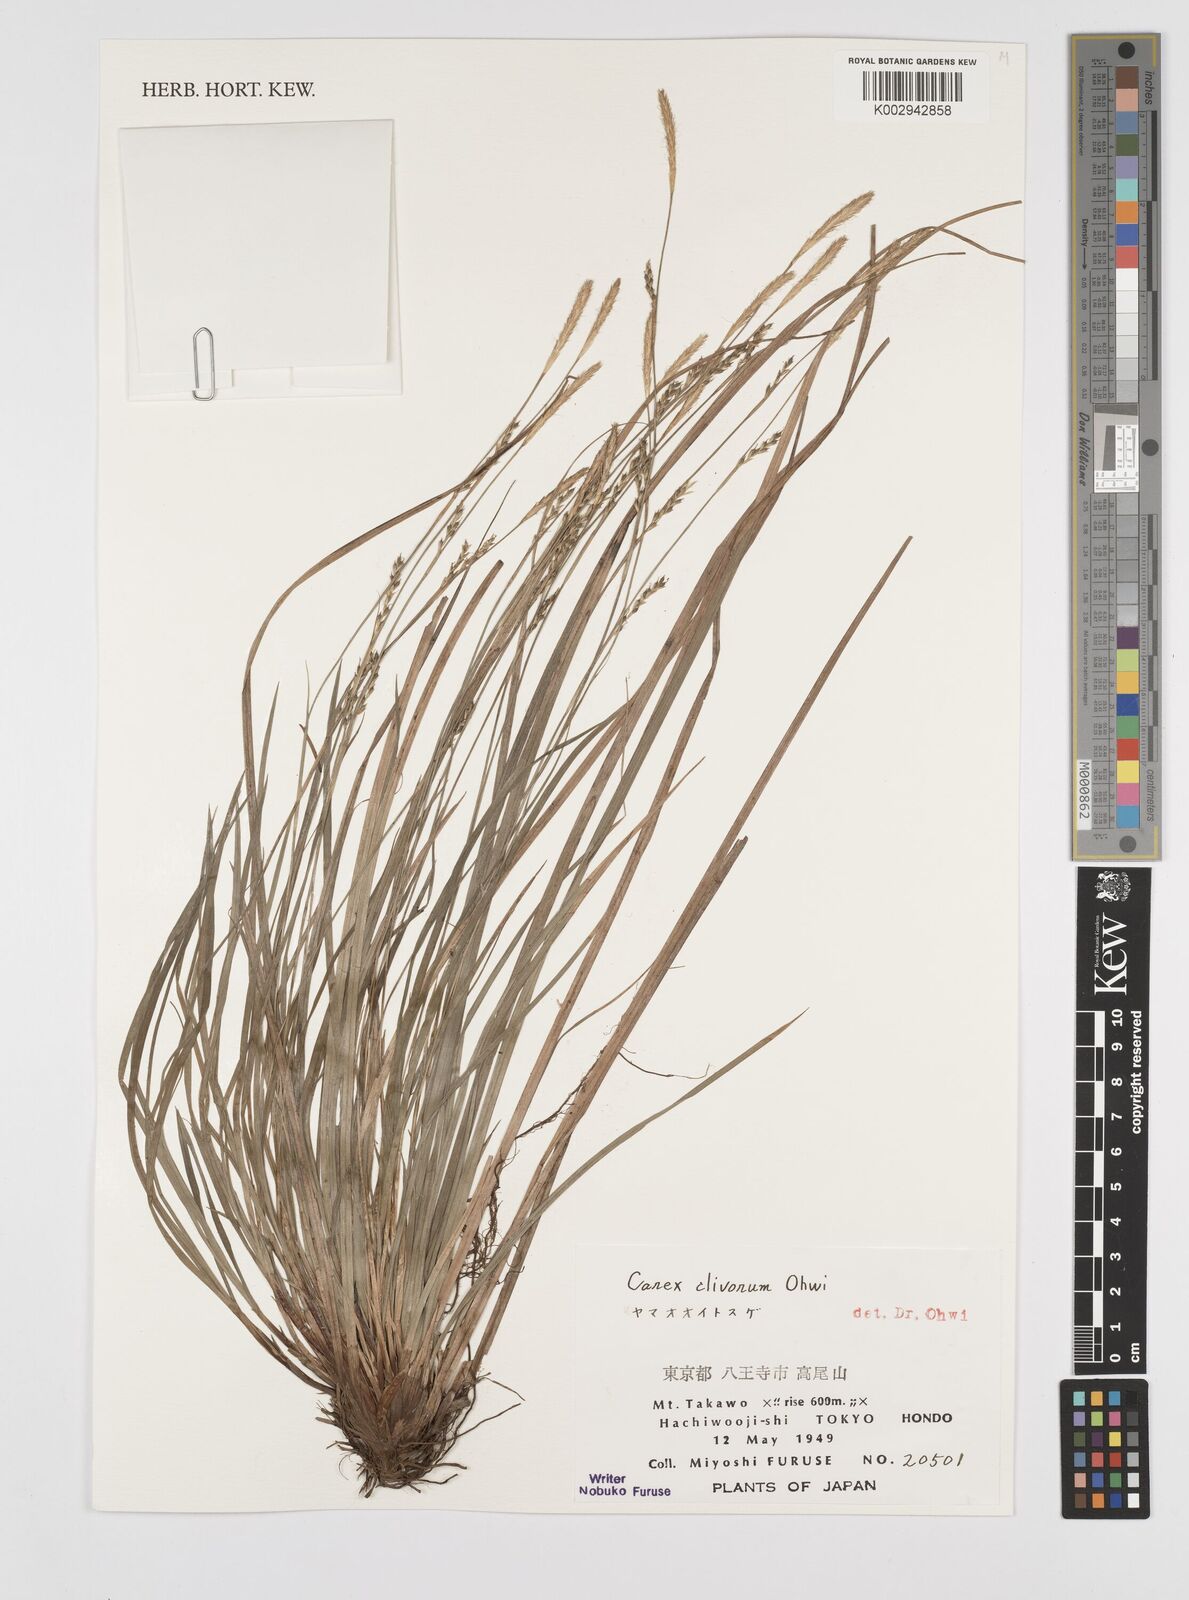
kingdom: Plantae
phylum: Tracheophyta
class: Liliopsida
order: Poales
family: Cyperaceae
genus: Carex
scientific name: Carex clivorum
